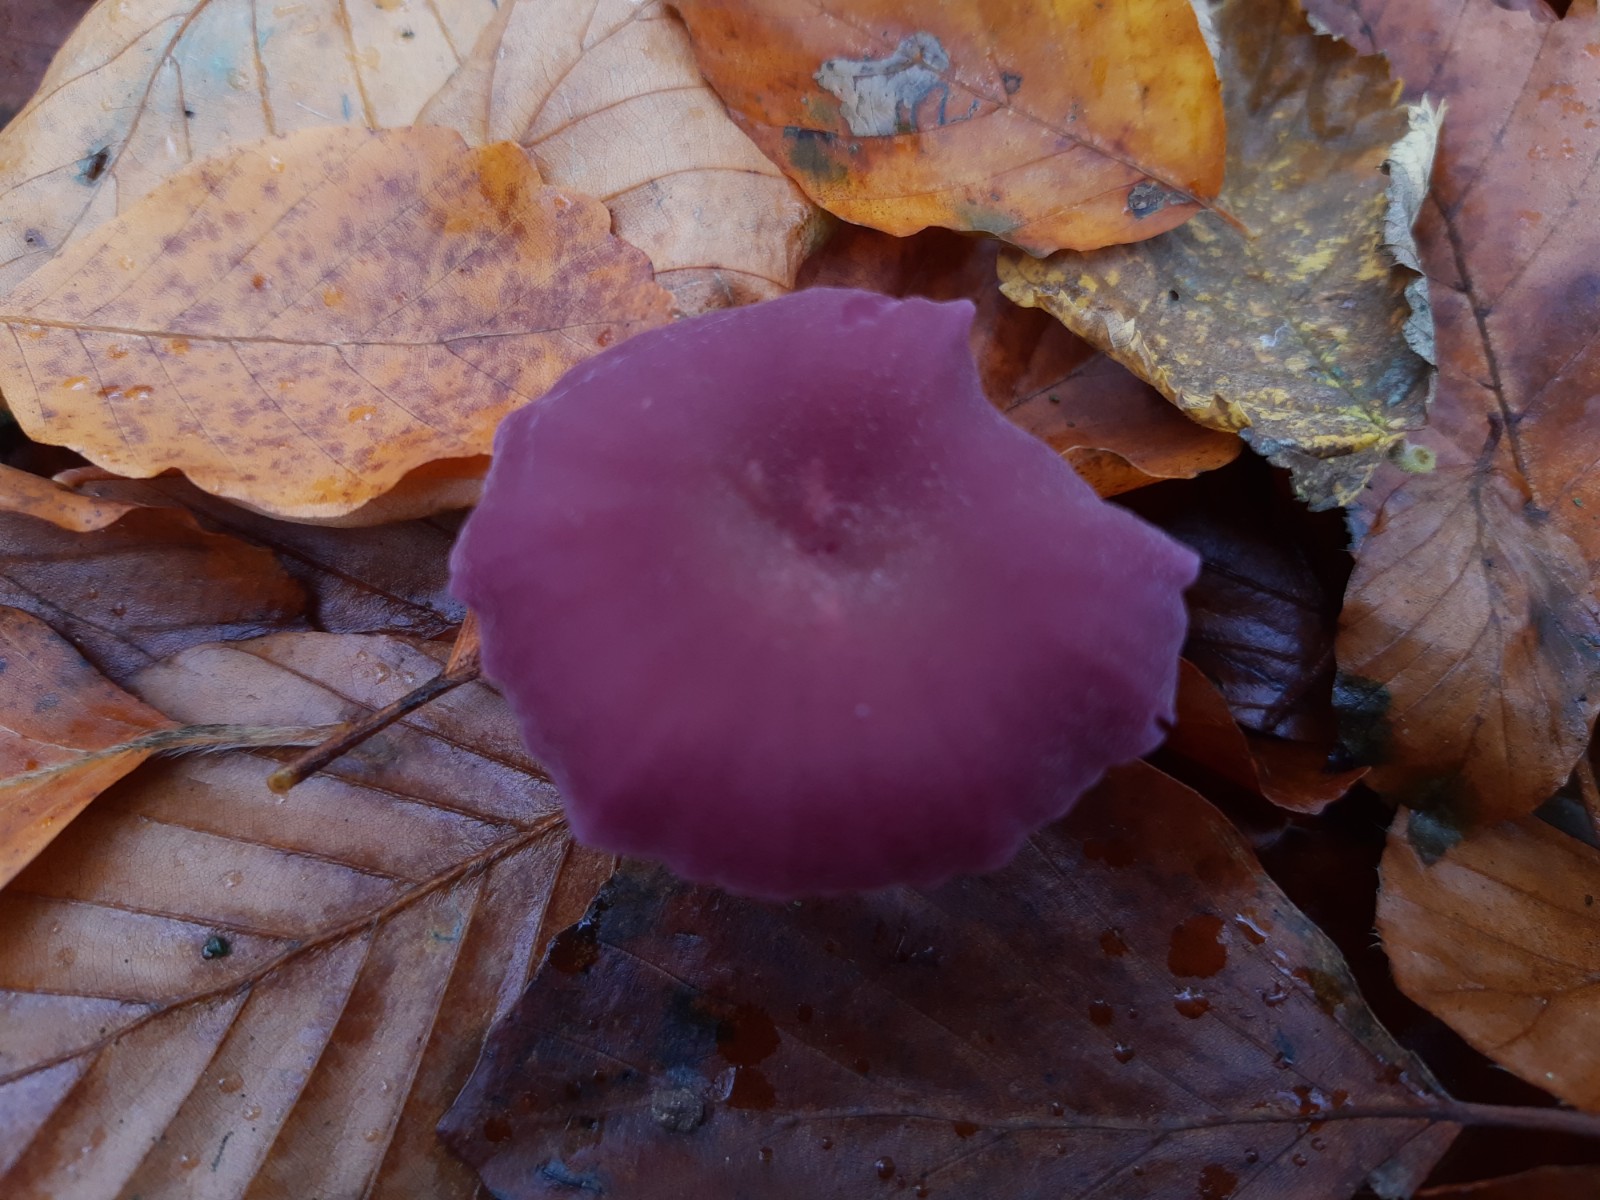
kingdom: Fungi
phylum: Basidiomycota
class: Agaricomycetes
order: Agaricales
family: Hydnangiaceae
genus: Laccaria
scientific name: Laccaria amethystina
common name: violet ametysthat
